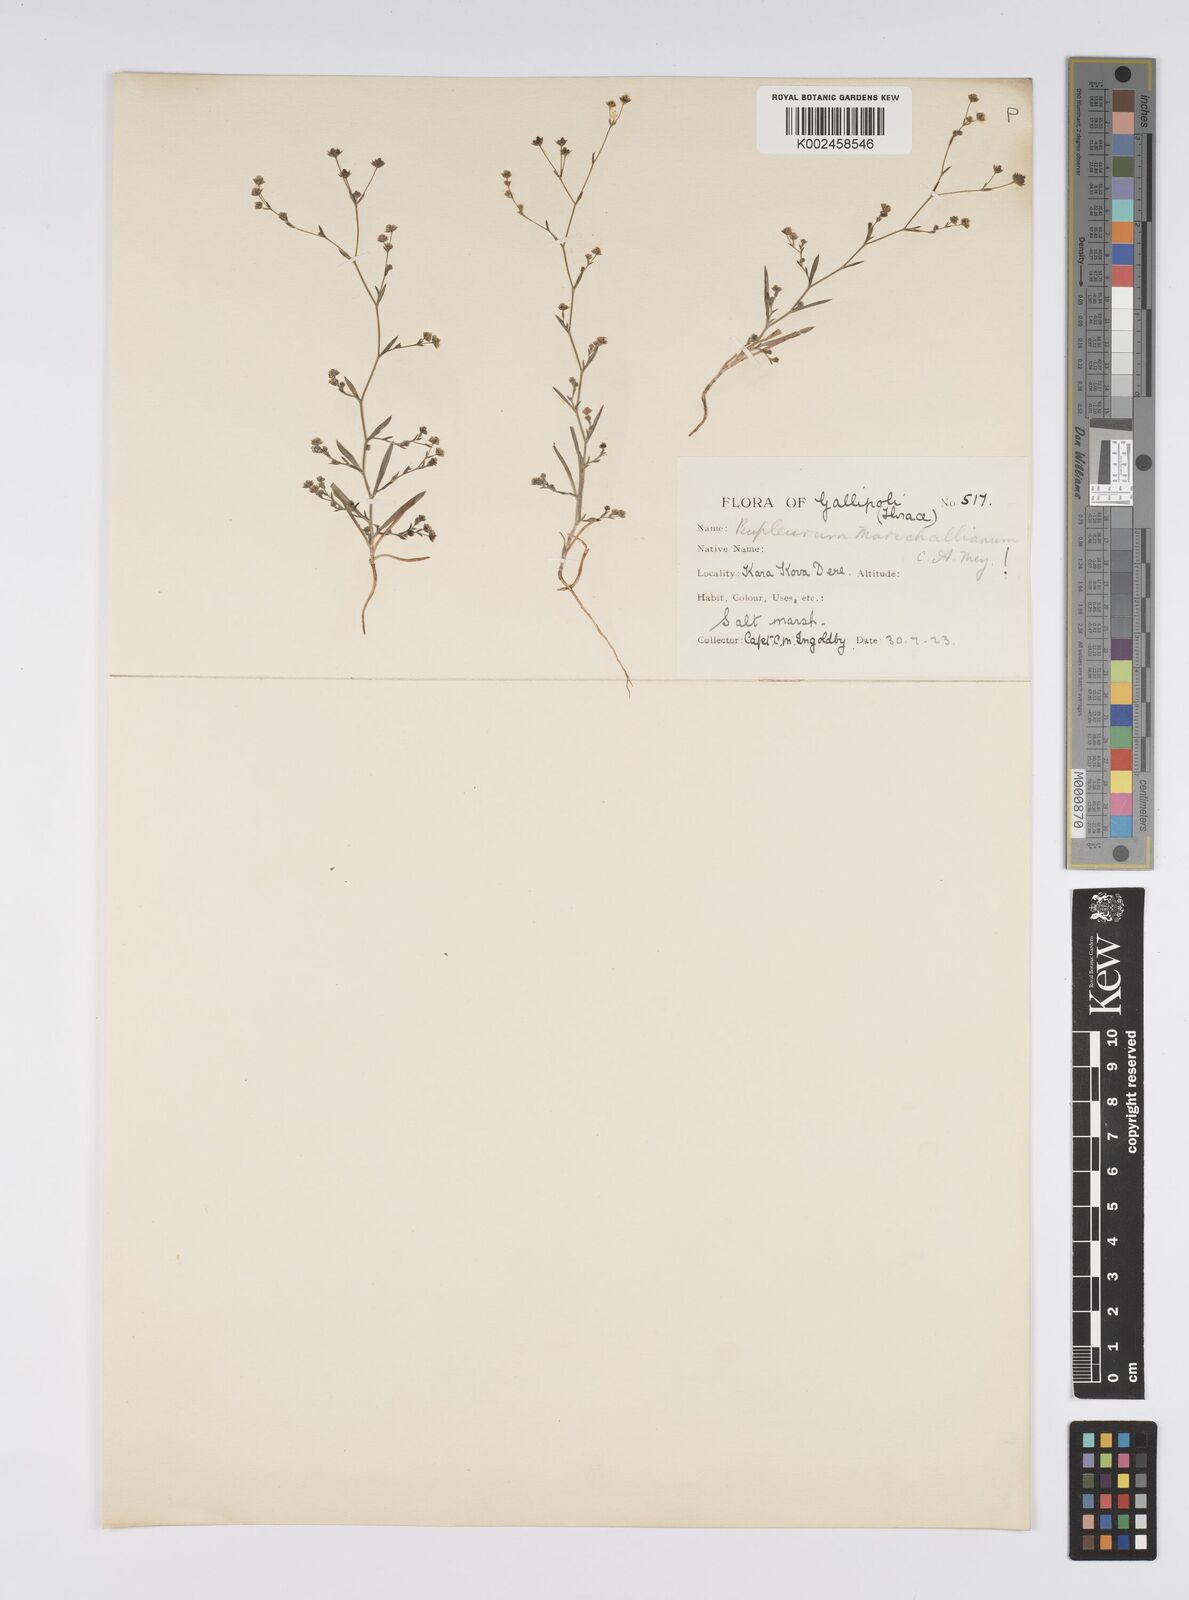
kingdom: Plantae
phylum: Tracheophyta
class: Magnoliopsida
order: Apiales
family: Apiaceae
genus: Bupleurum
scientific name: Bupleurum tenuissimum
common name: Slender hare's-ear
